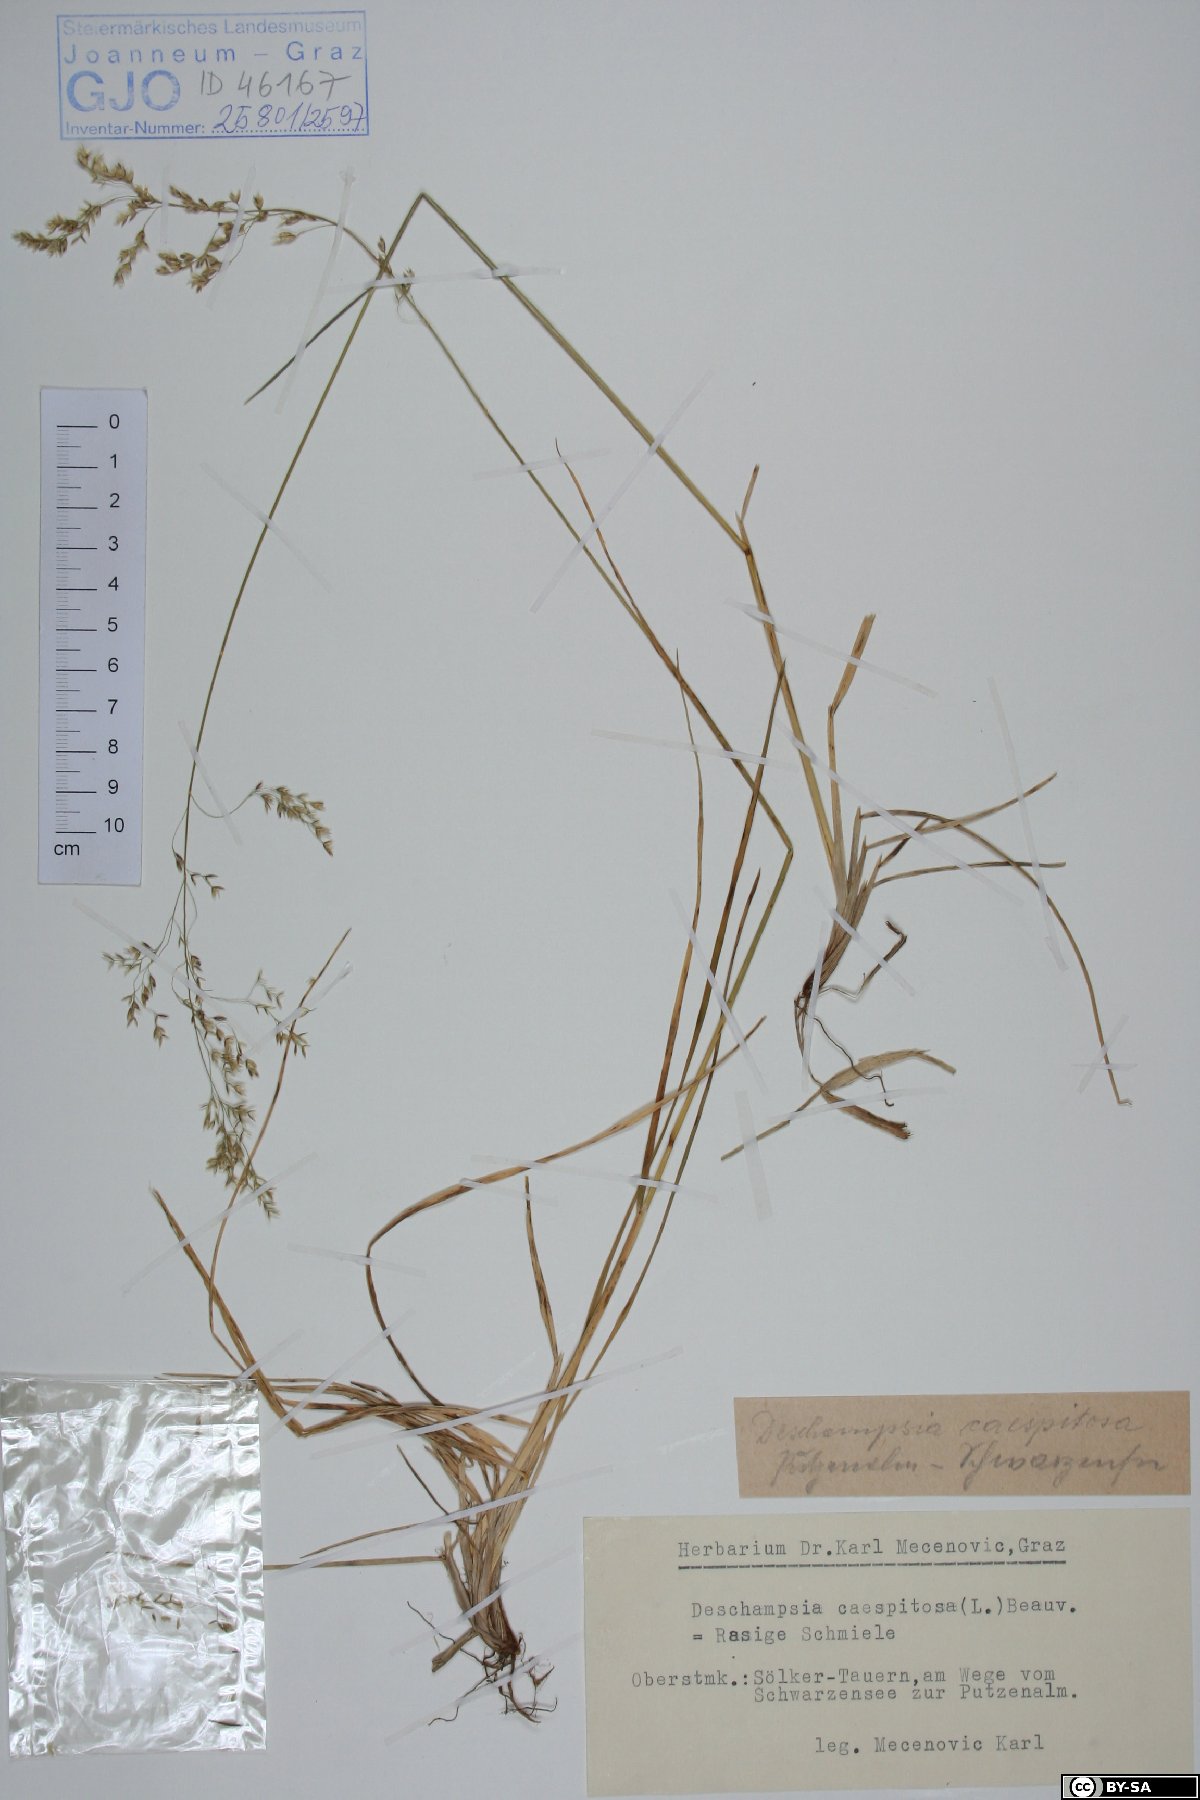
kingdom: Plantae
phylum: Tracheophyta
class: Liliopsida
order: Poales
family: Poaceae
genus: Deschampsia
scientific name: Deschampsia cespitosa
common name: Tufted hair-grass
